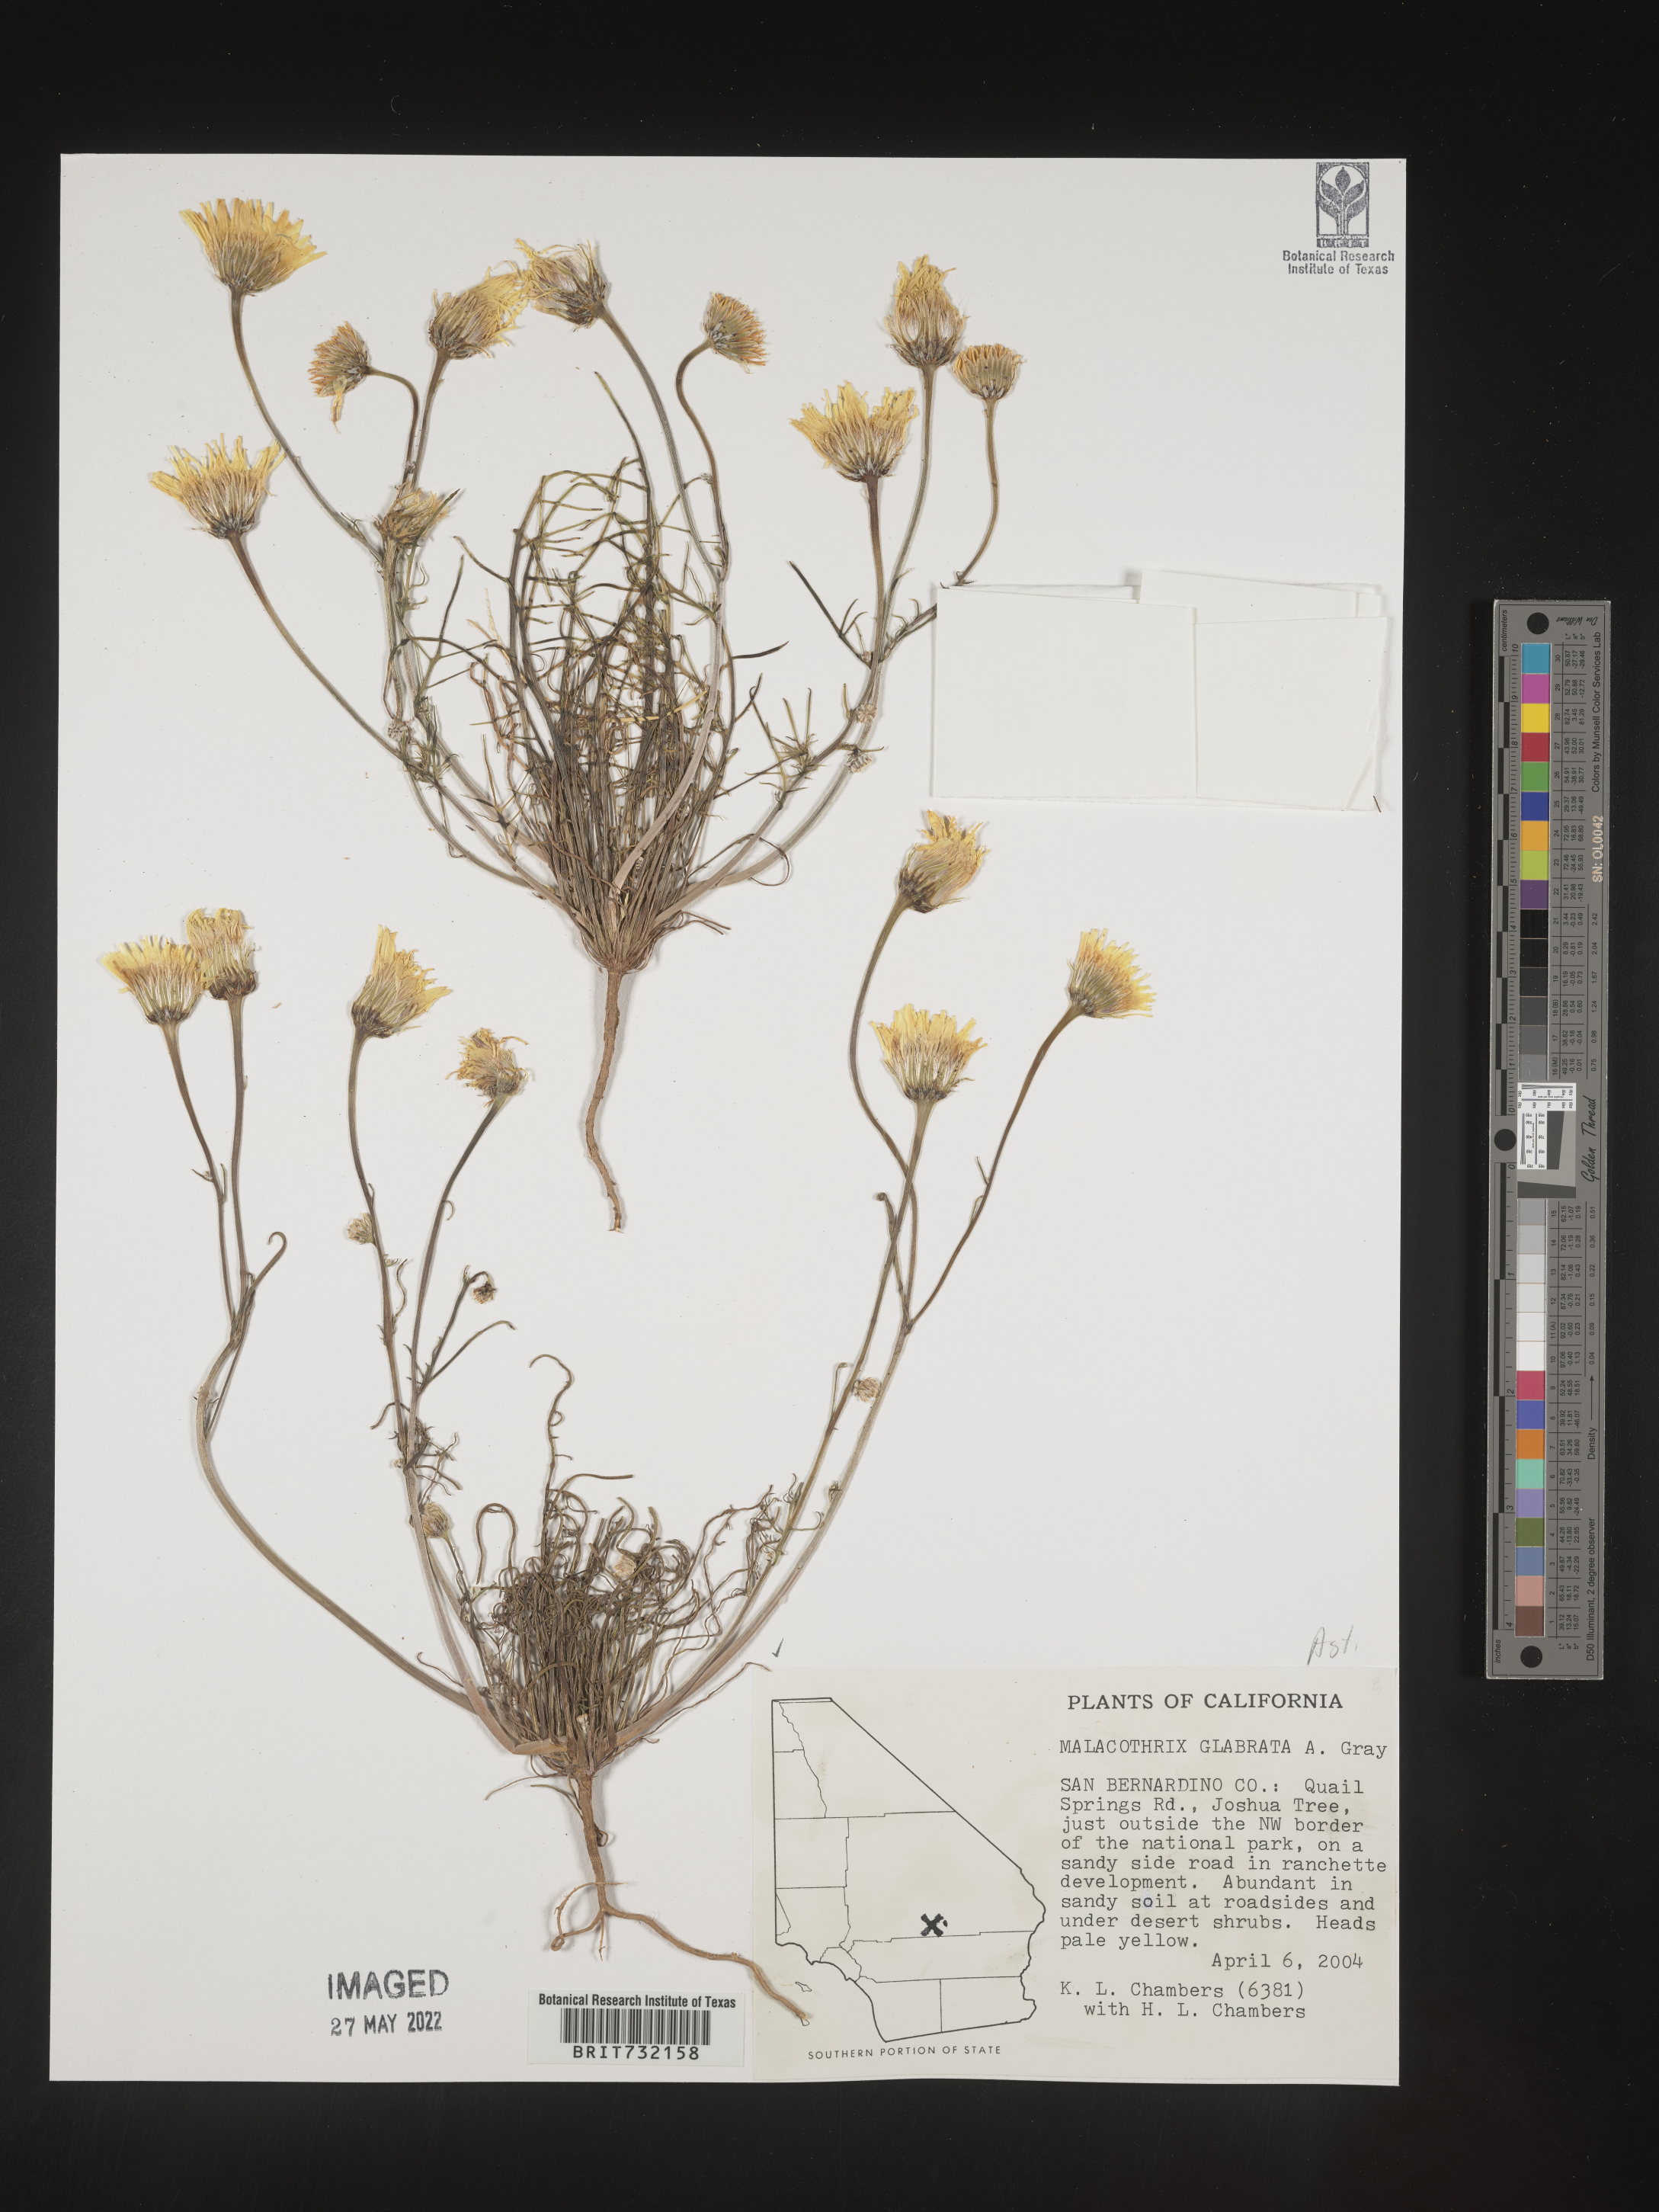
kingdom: Plantae
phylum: Tracheophyta
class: Magnoliopsida
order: Asterales
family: Asteraceae
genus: Malacothrix
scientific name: Malacothrix glabrata
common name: Smooth desert-dandelion
